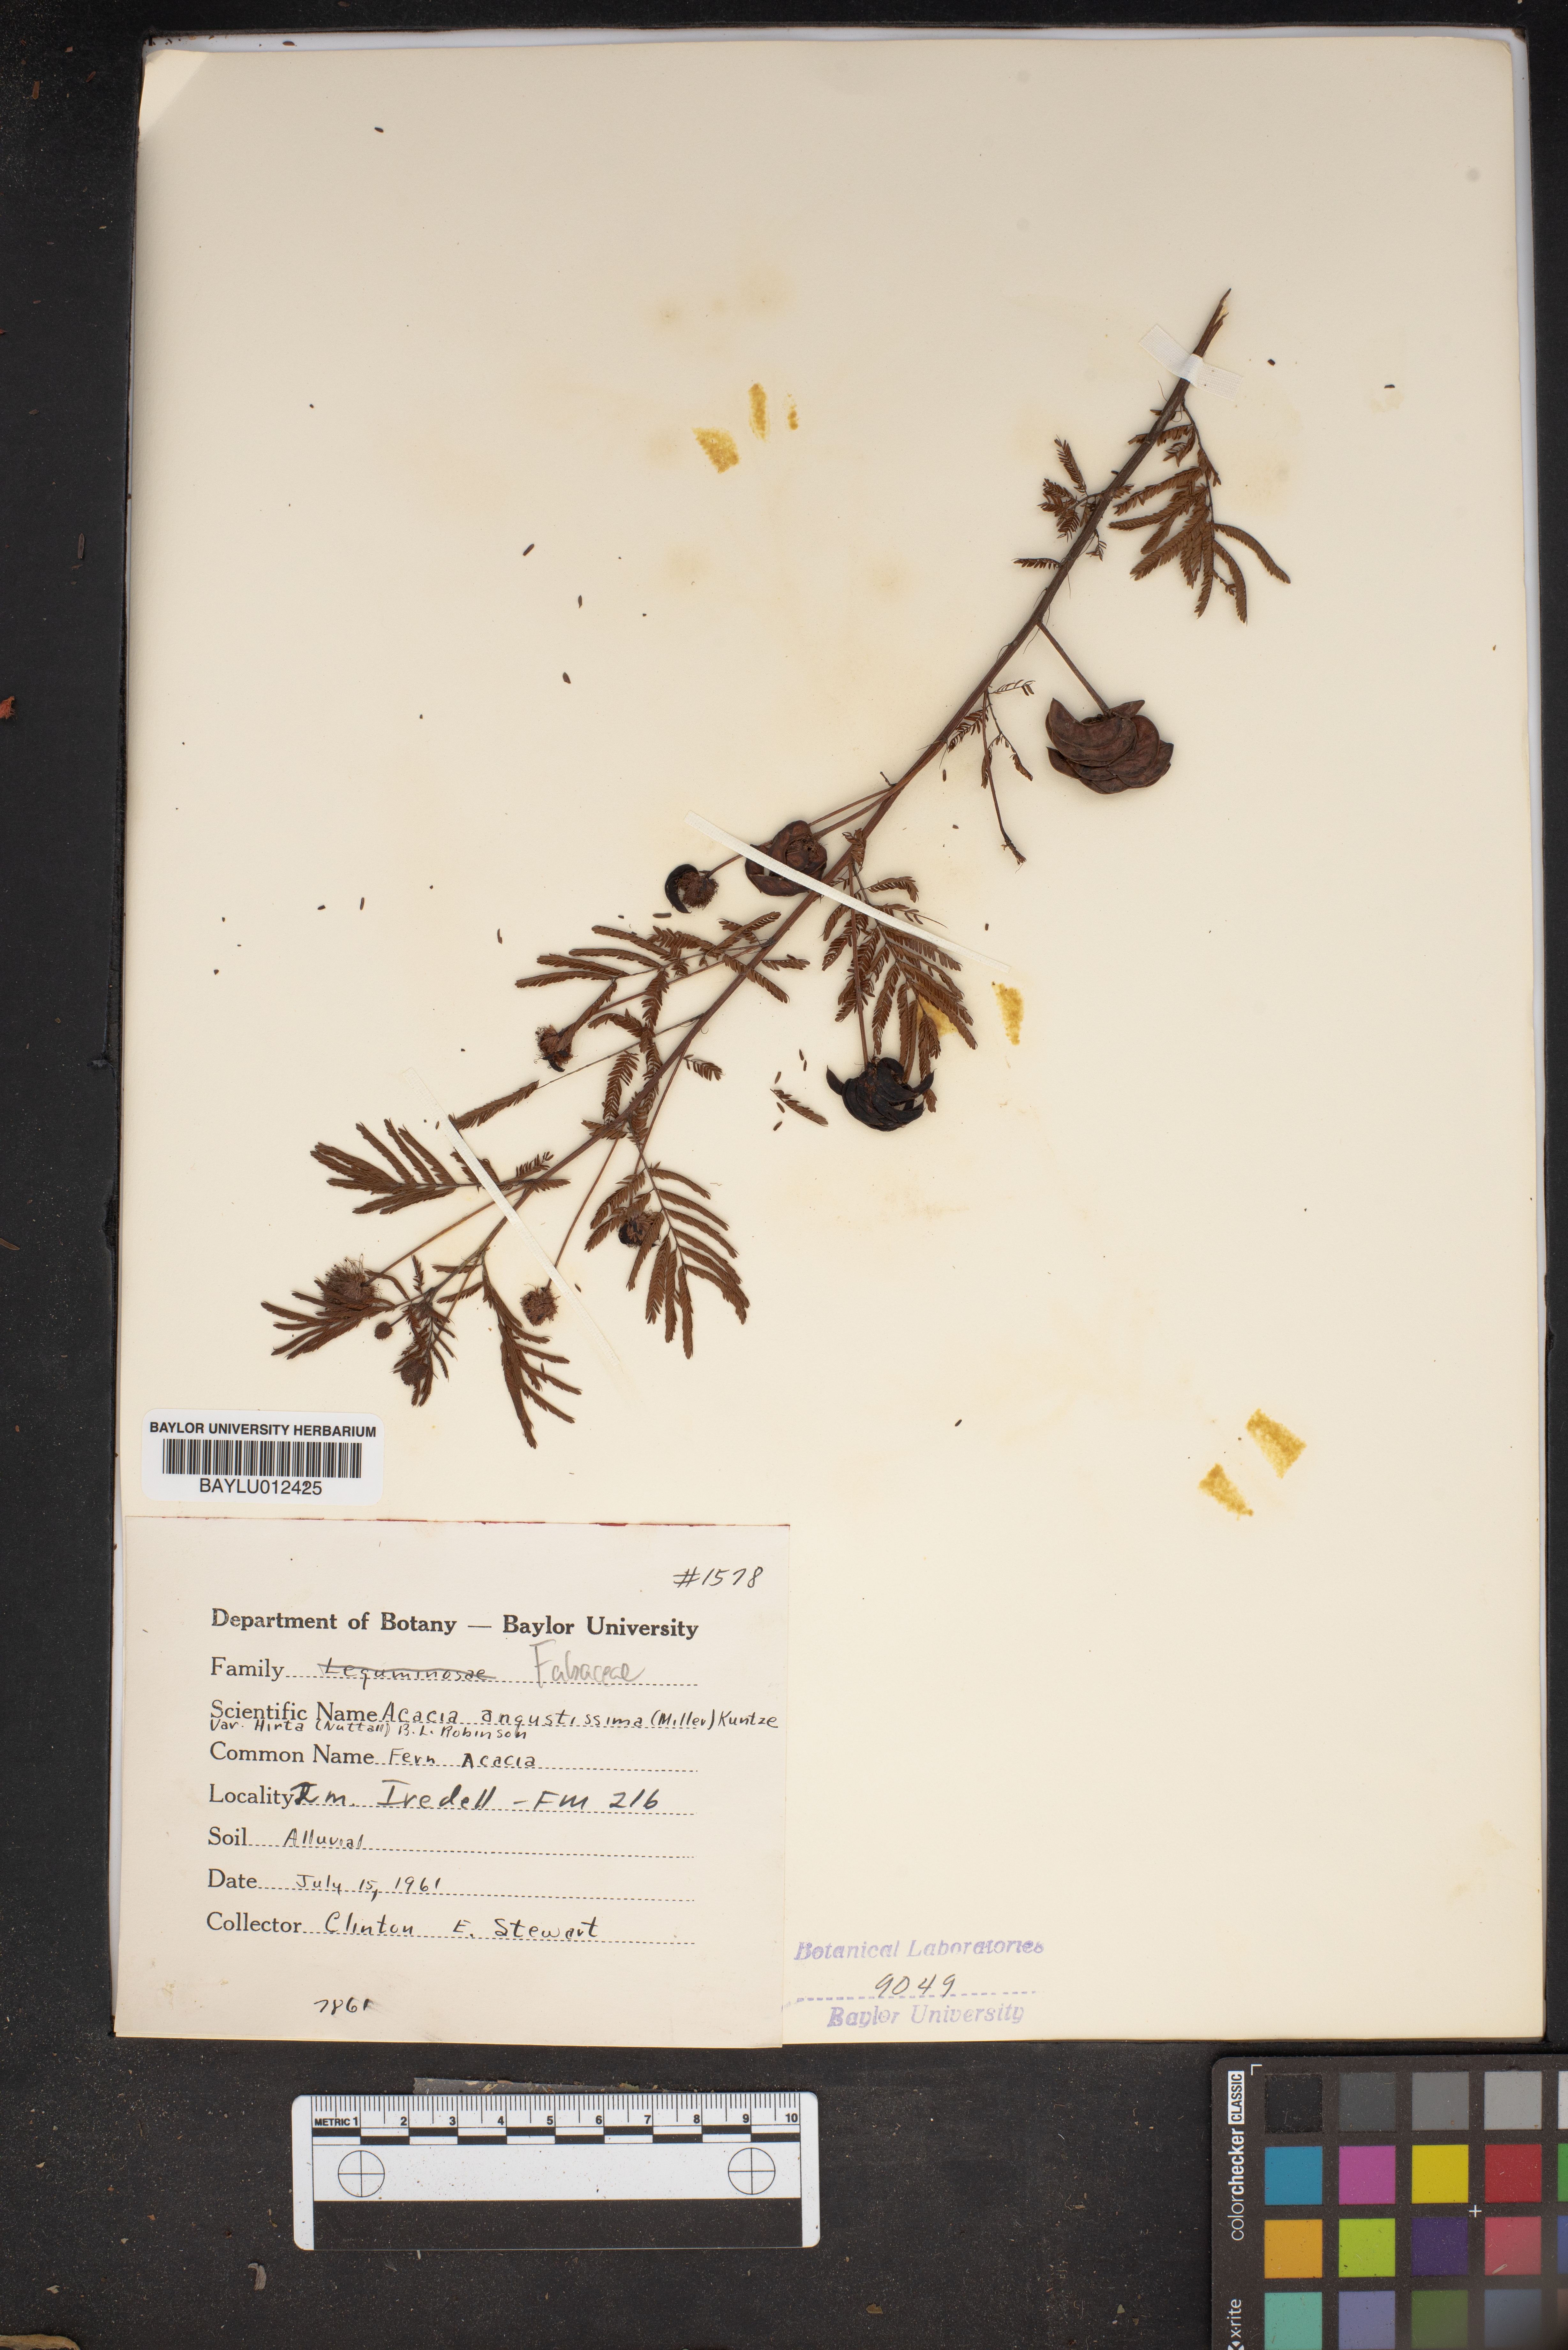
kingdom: Plantae
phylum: Tracheophyta
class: Magnoliopsida
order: Fabales
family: Fabaceae
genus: Acaciella
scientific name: Acaciella angustissima
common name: Prairie acacia
